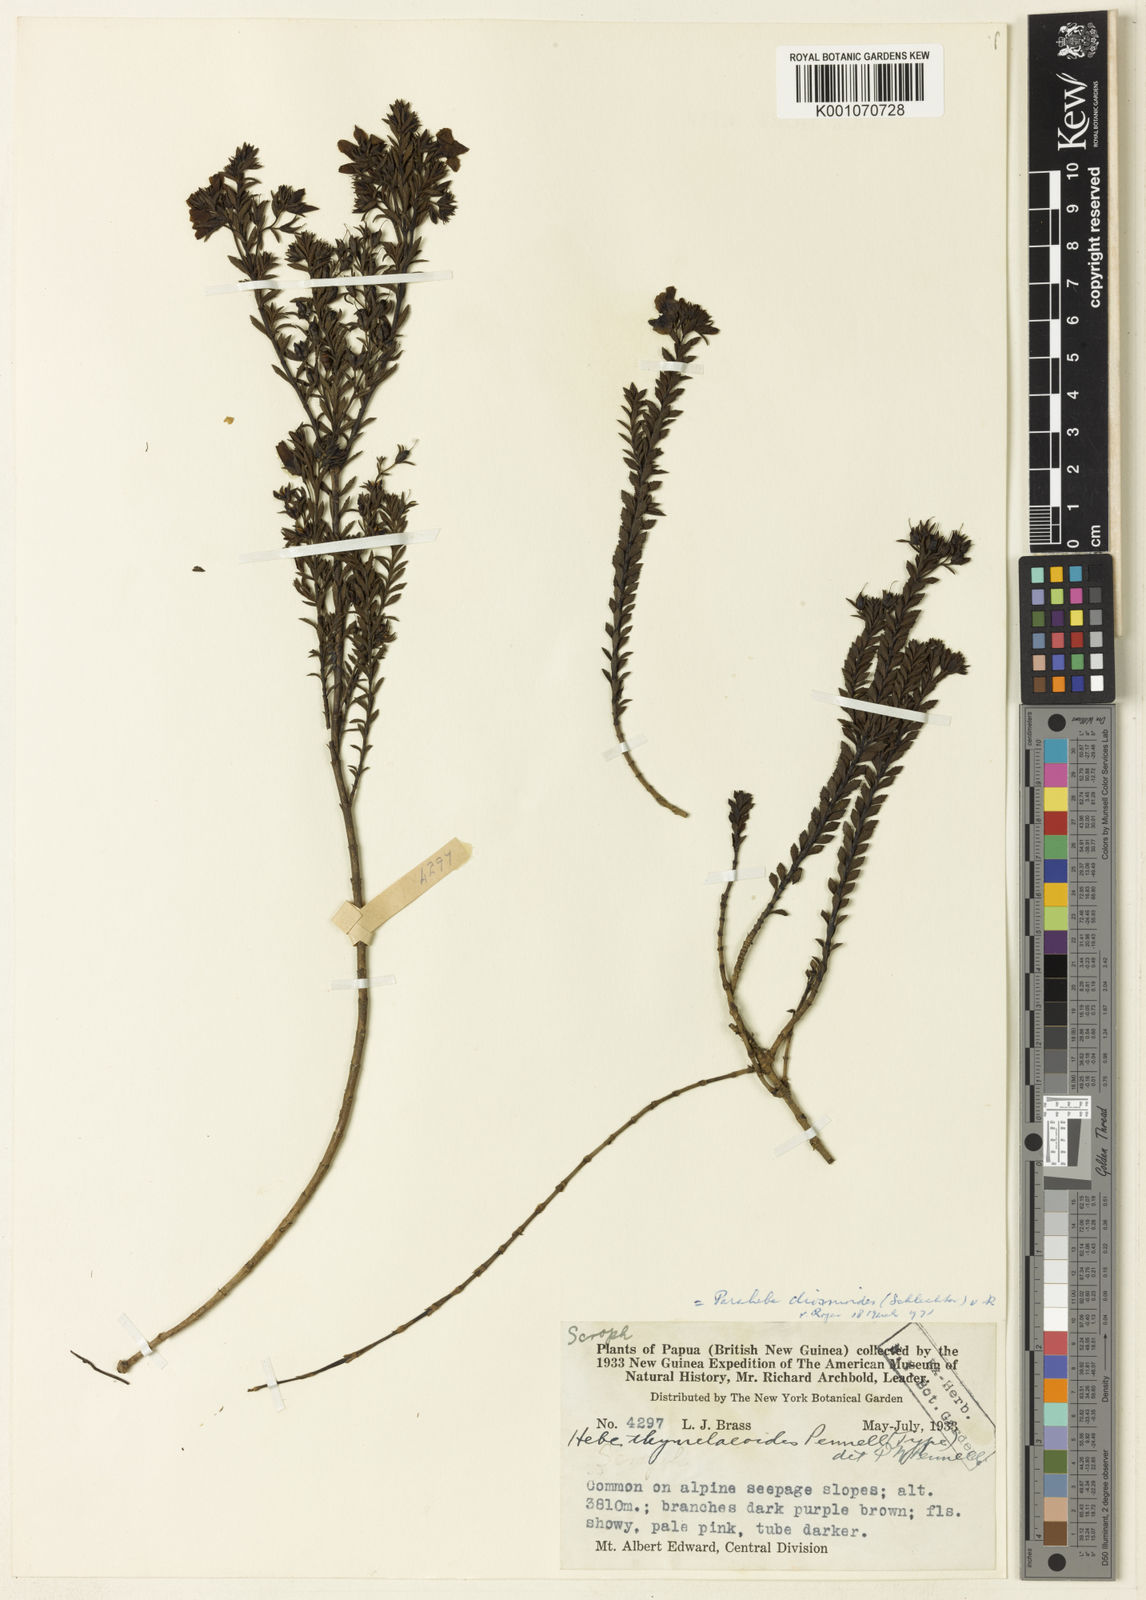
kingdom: Plantae
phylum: Tracheophyta
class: Magnoliopsida
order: Lamiales
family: Plantaginaceae
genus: Veronica
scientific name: Veronica diosmoides
